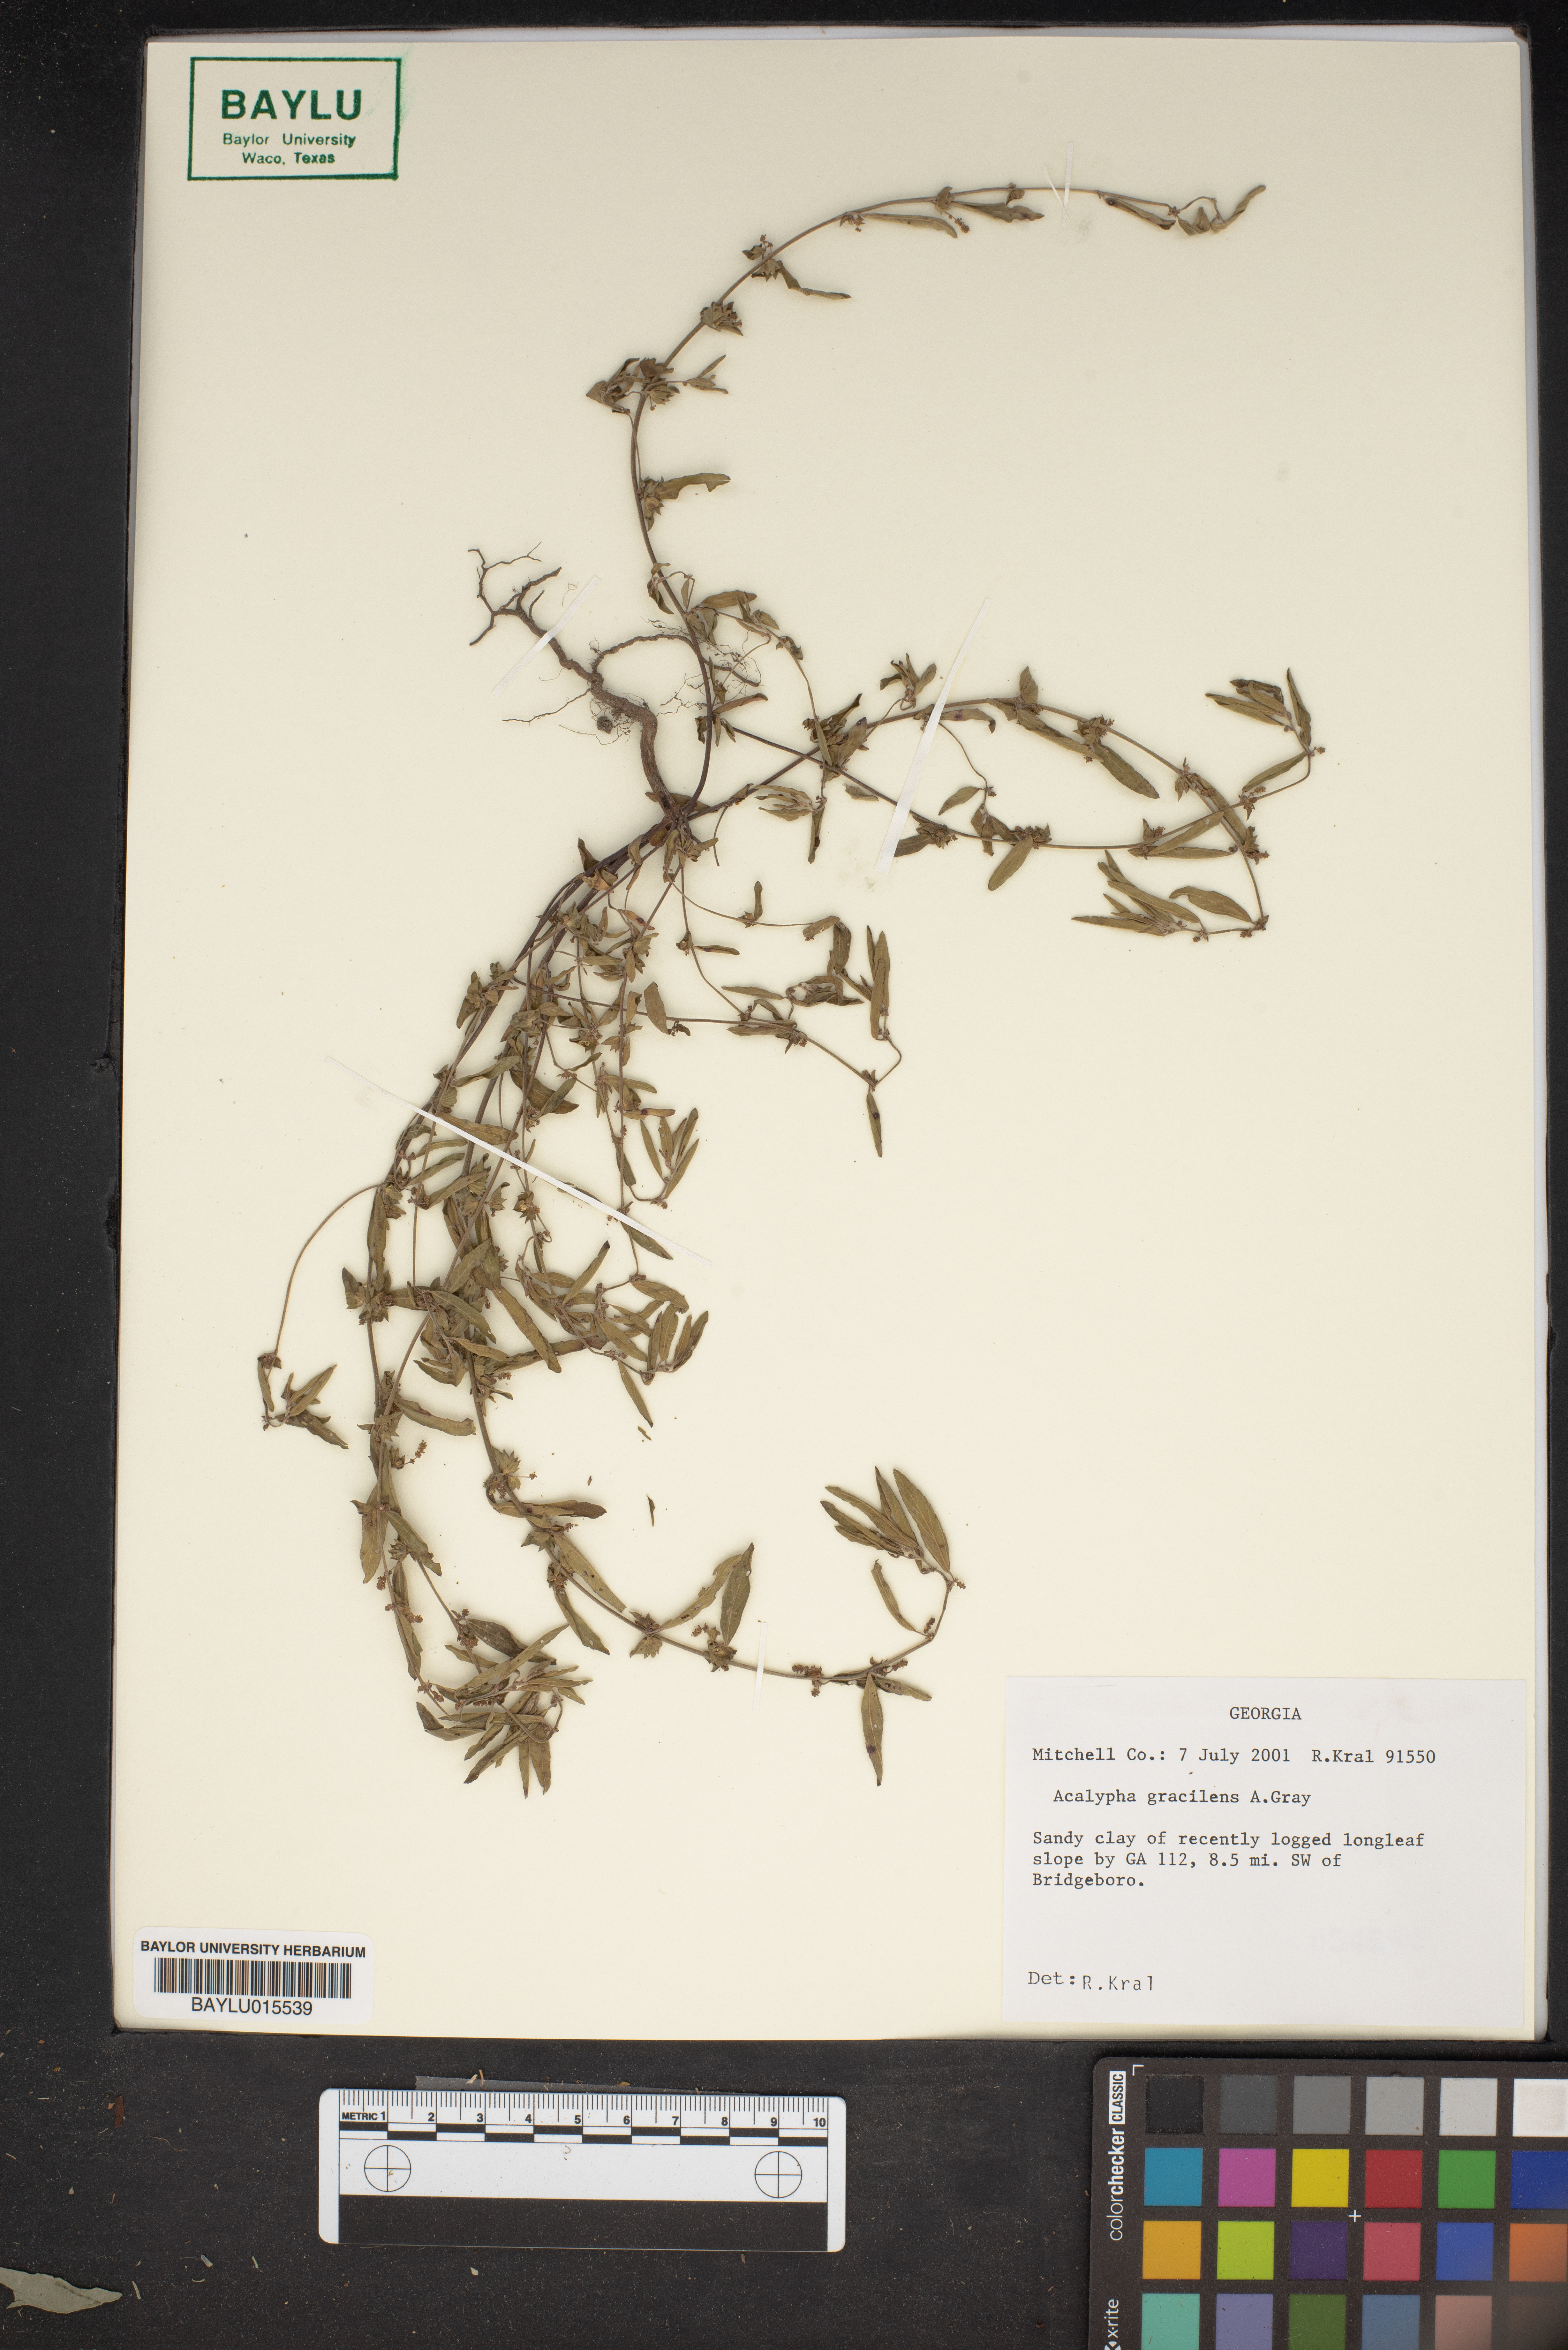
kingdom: Plantae
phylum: Tracheophyta
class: Magnoliopsida
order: Malpighiales
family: Euphorbiaceae
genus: Acalypha
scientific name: Acalypha gracilens
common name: Slender three-seeded mercury
